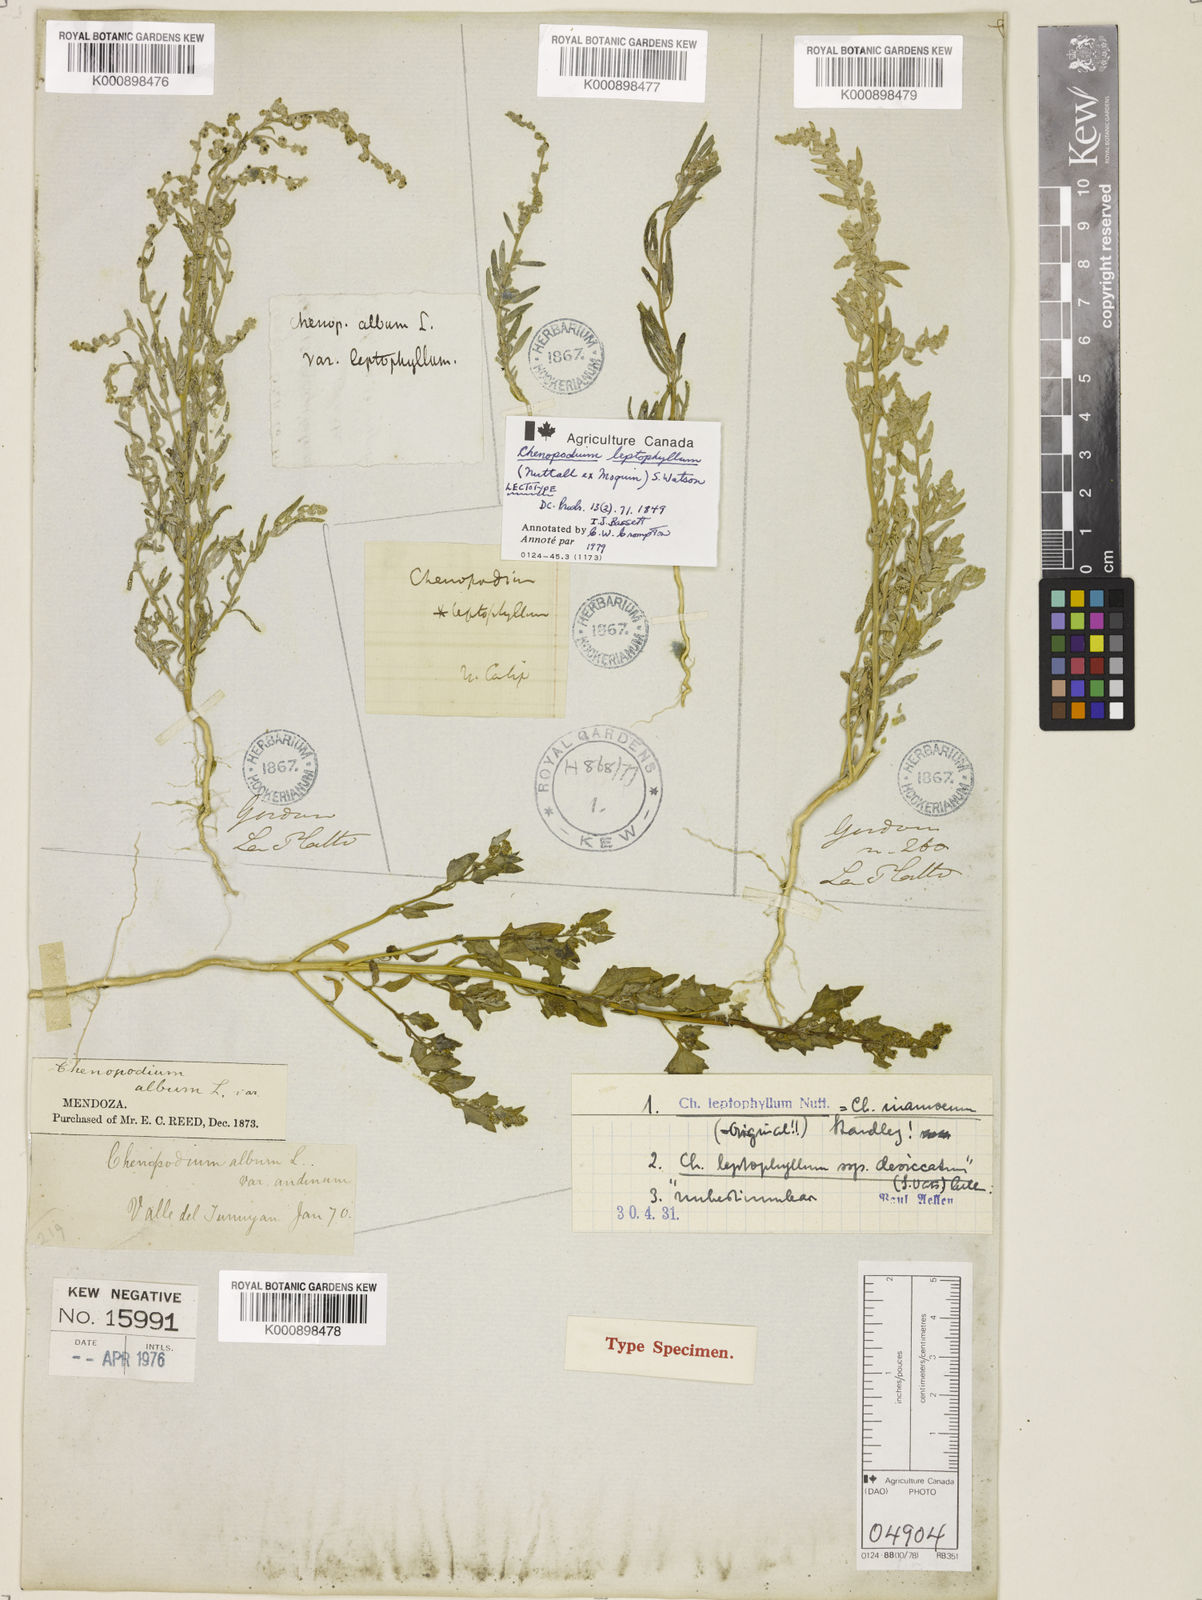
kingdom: Plantae
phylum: Tracheophyta
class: Magnoliopsida
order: Caryophyllales
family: Amaranthaceae
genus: Chenopodium
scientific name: Chenopodium leptophyllum
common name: Narrow-leaf goosefoot
